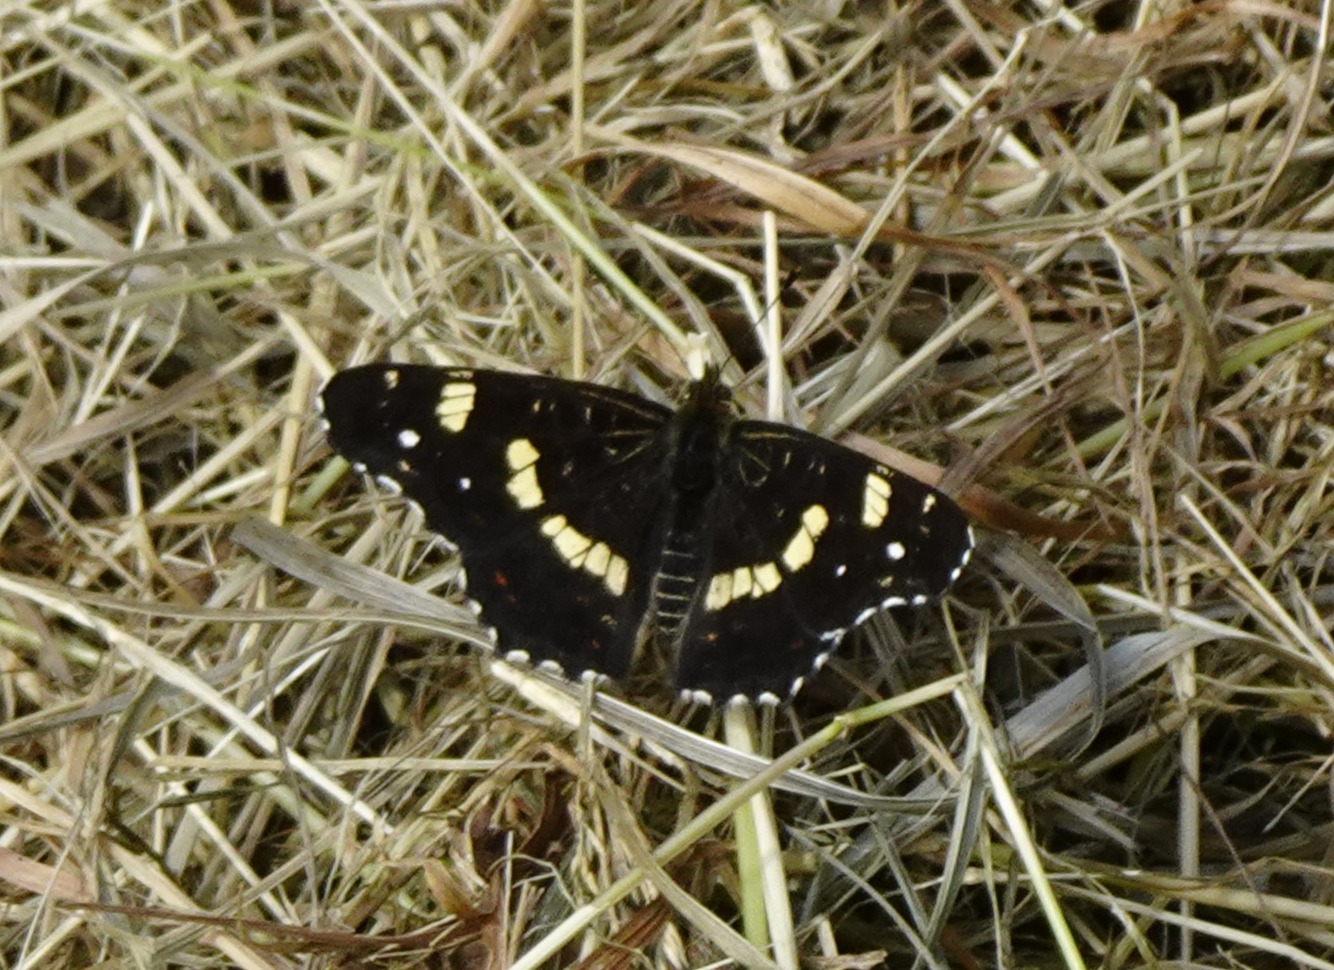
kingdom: Animalia
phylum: Arthropoda
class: Insecta
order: Lepidoptera
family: Nymphalidae
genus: Araschnia
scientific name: Araschnia levana
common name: Nældesommerfugl
